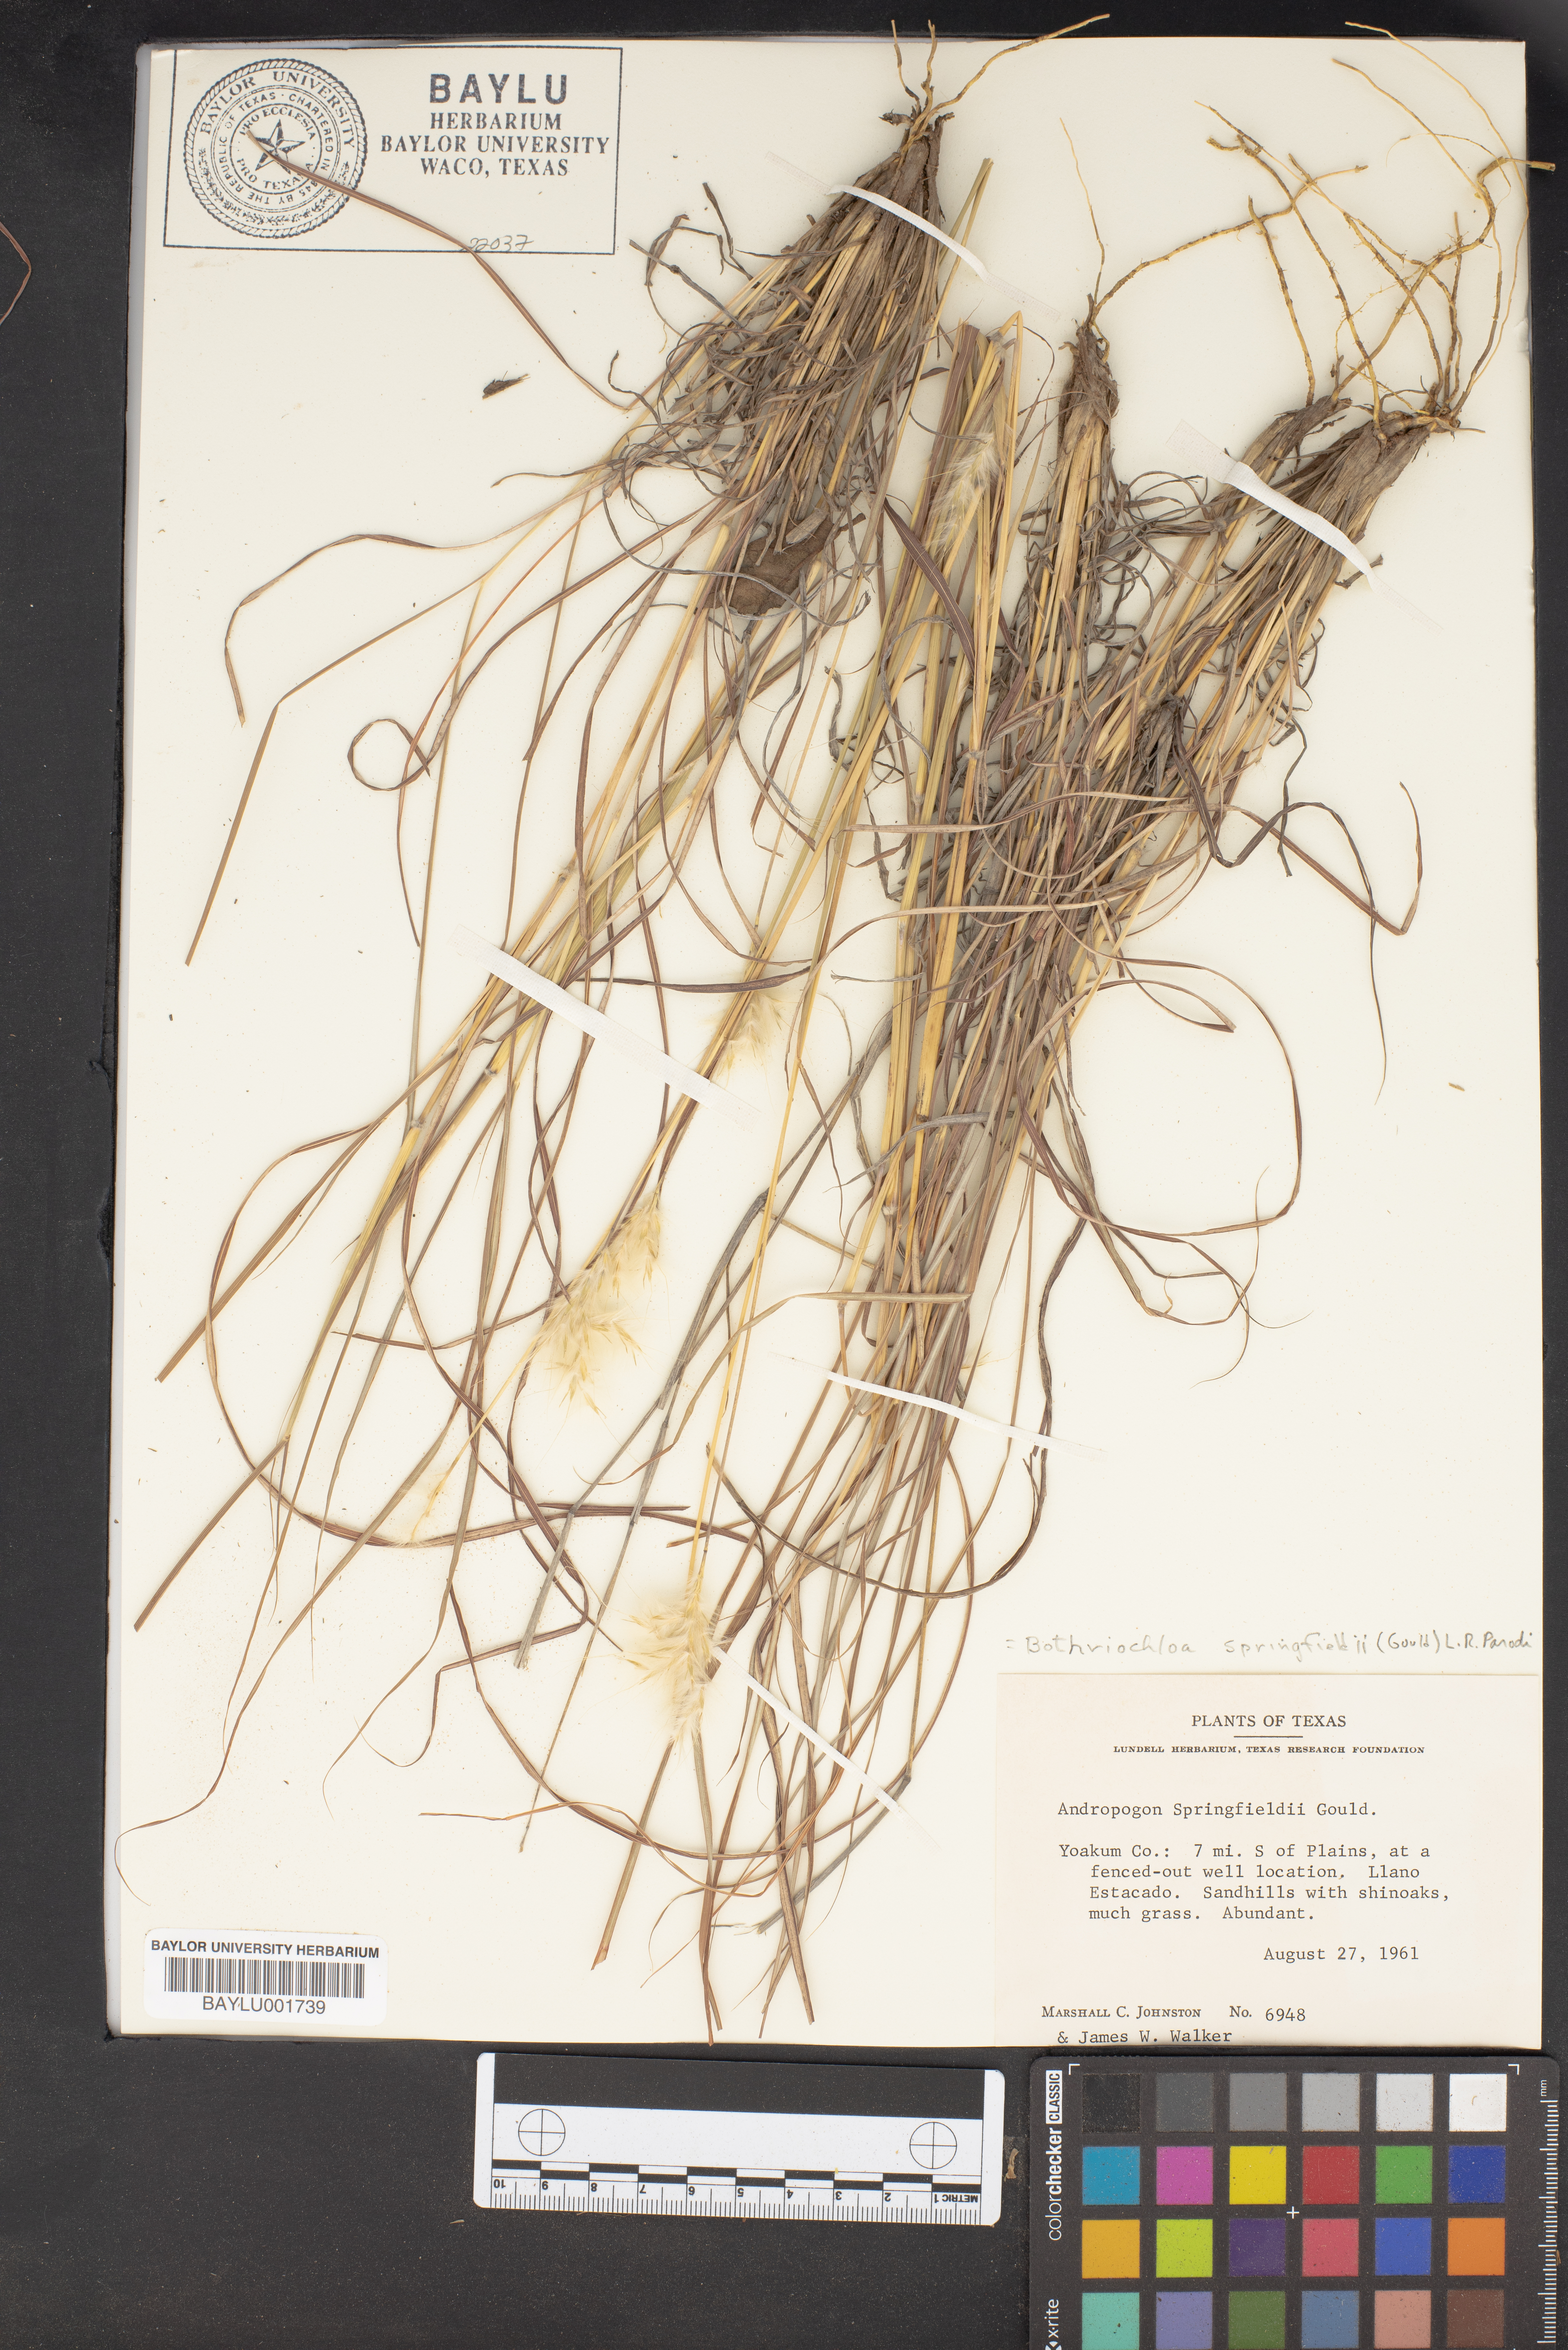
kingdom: Plantae
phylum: Tracheophyta
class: Liliopsida
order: Poales
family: Poaceae
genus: Bothriochloa
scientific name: Bothriochloa springfieldii
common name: Springfield bluestem
